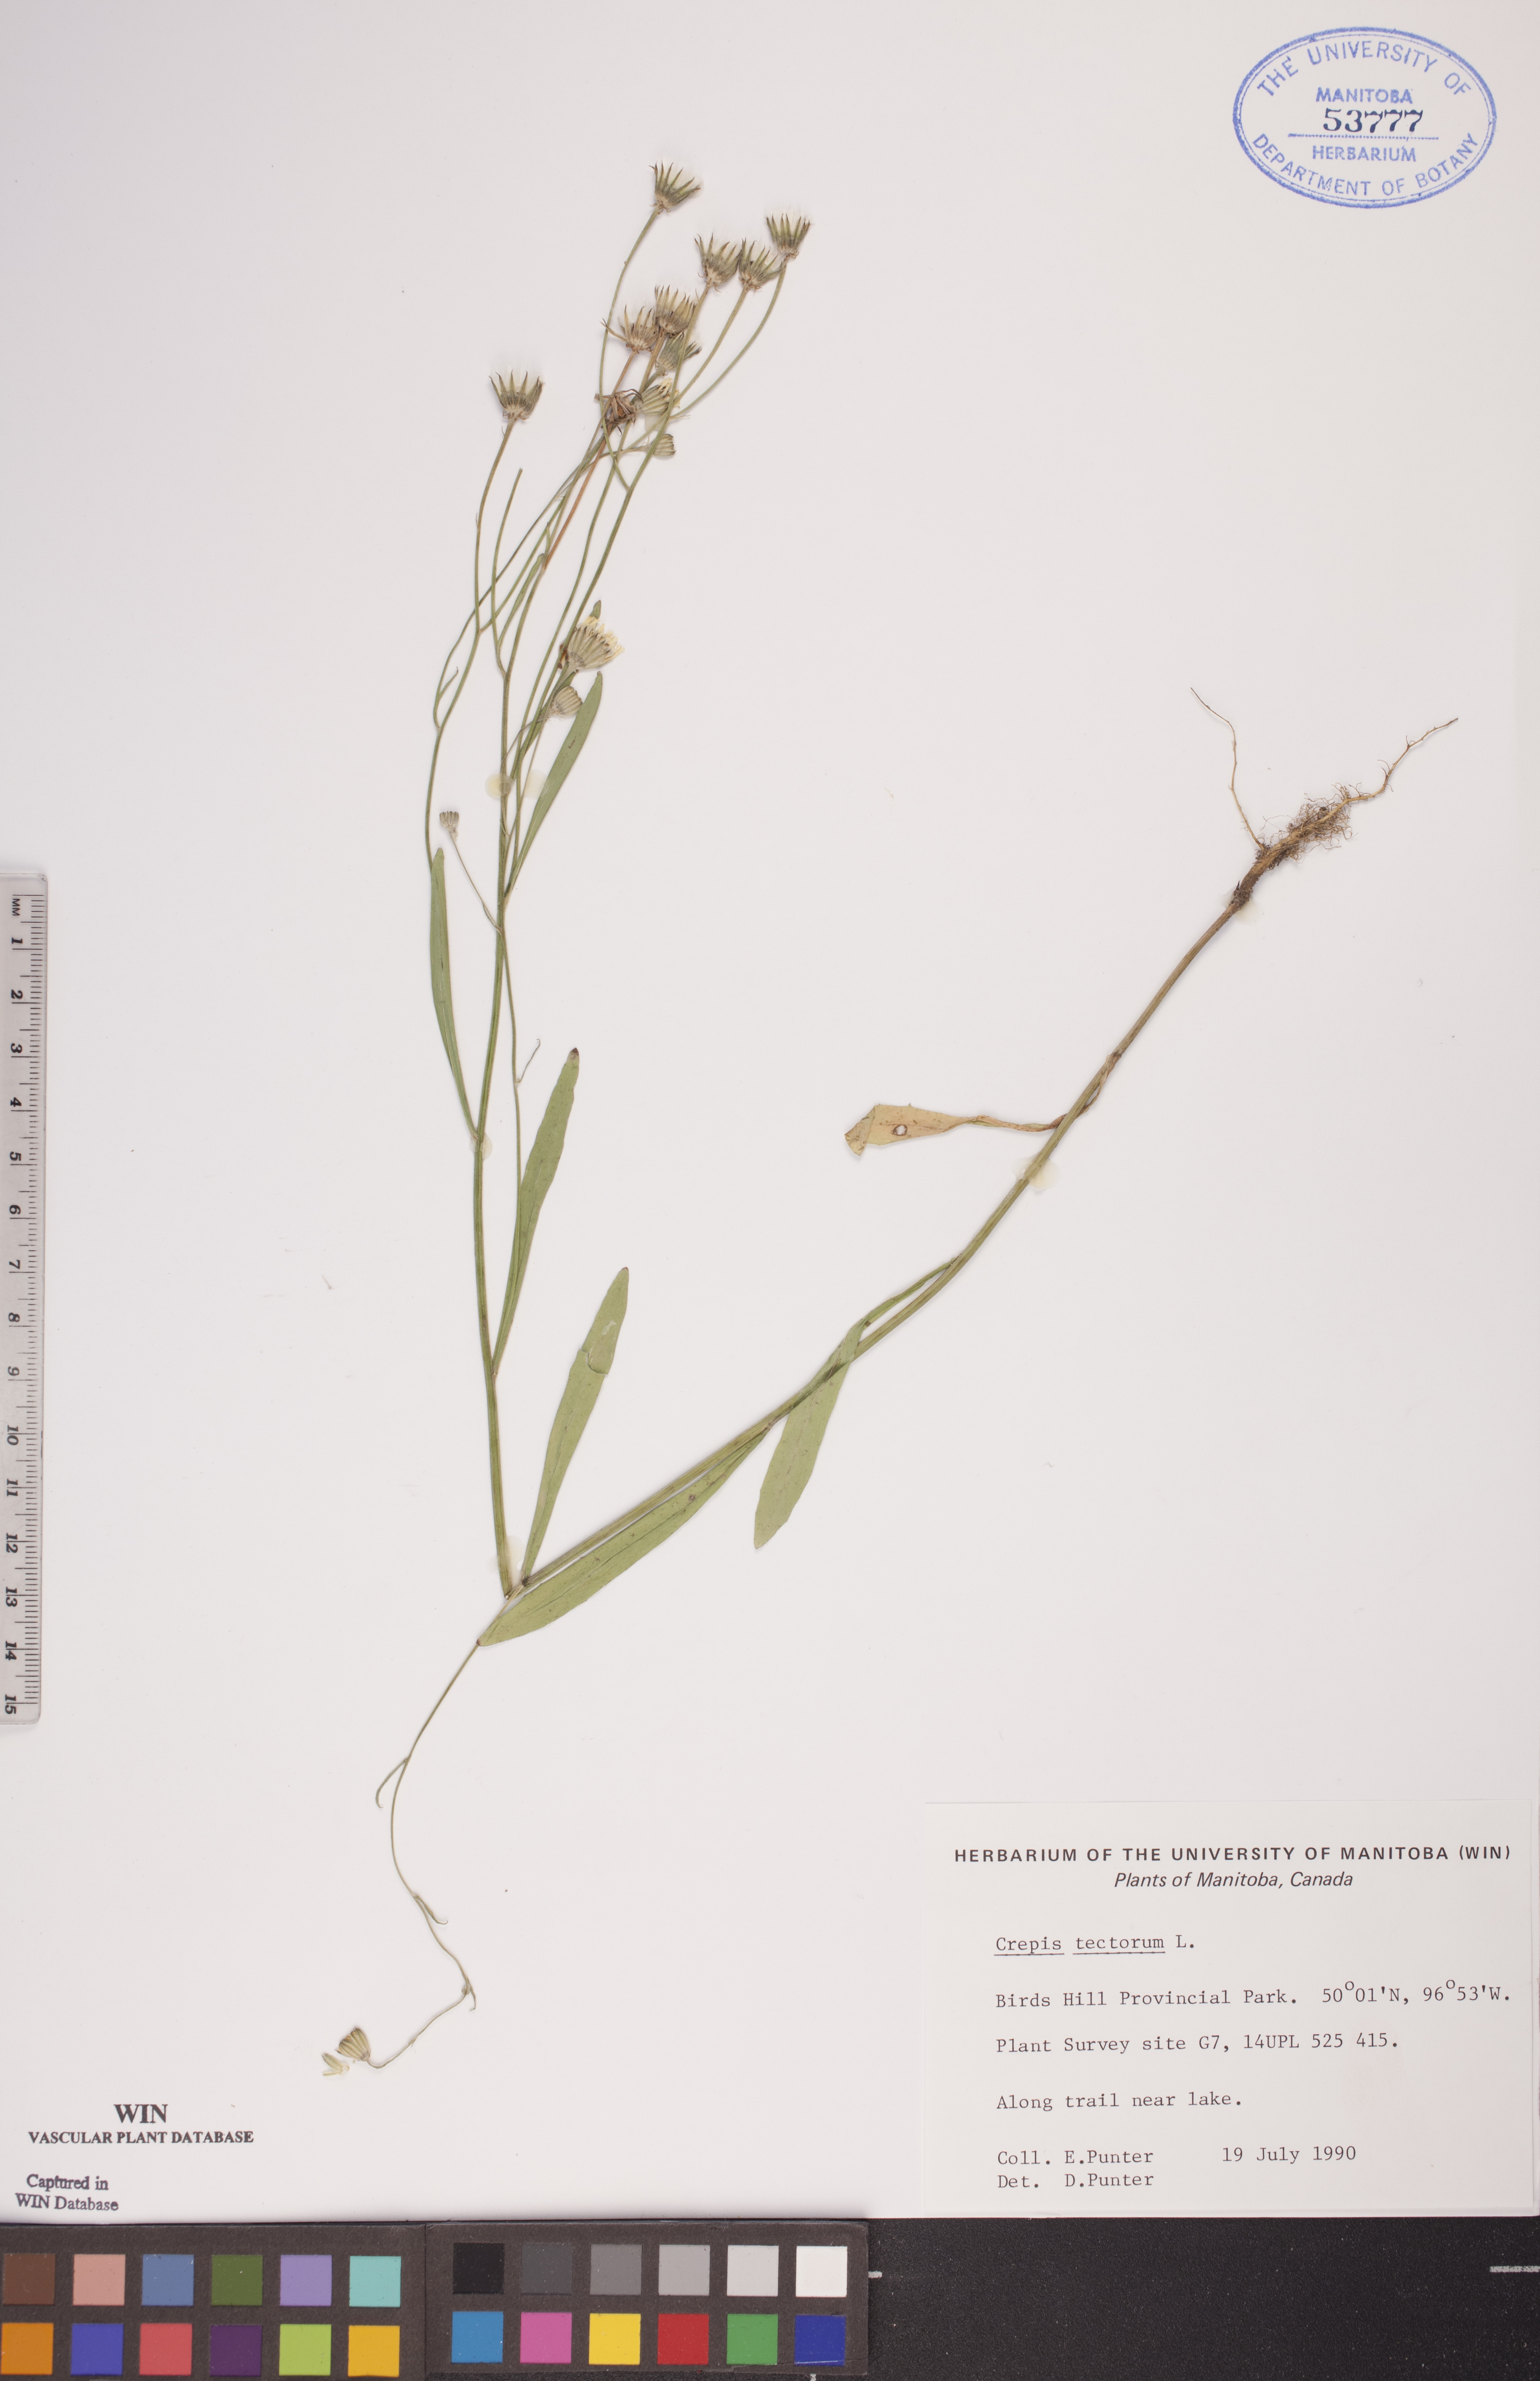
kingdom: Plantae
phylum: Tracheophyta
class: Magnoliopsida
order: Asterales
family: Asteraceae
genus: Crepis
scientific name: Crepis tectorum
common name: Narrow-leaved hawk's-beard
